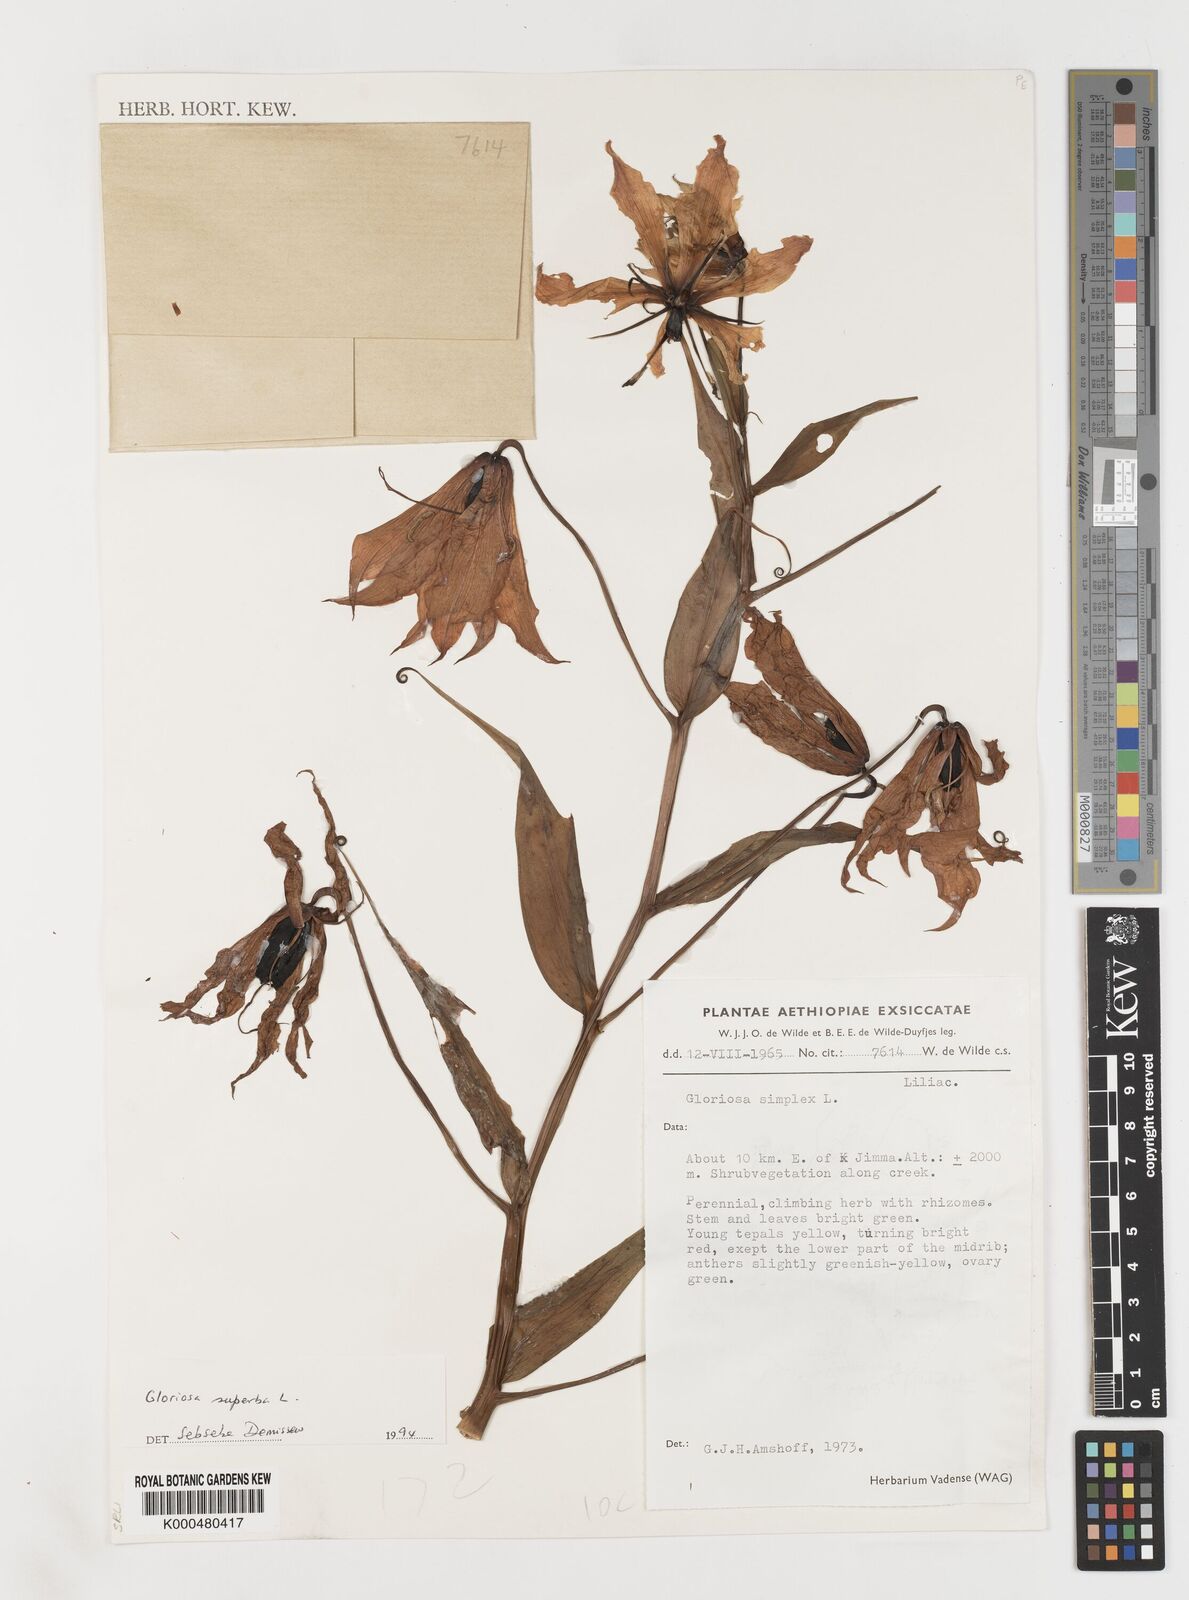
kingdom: Plantae
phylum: Tracheophyta
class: Liliopsida
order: Liliales
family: Colchicaceae
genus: Gloriosa
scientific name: Gloriosa superba
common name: Flame lily
